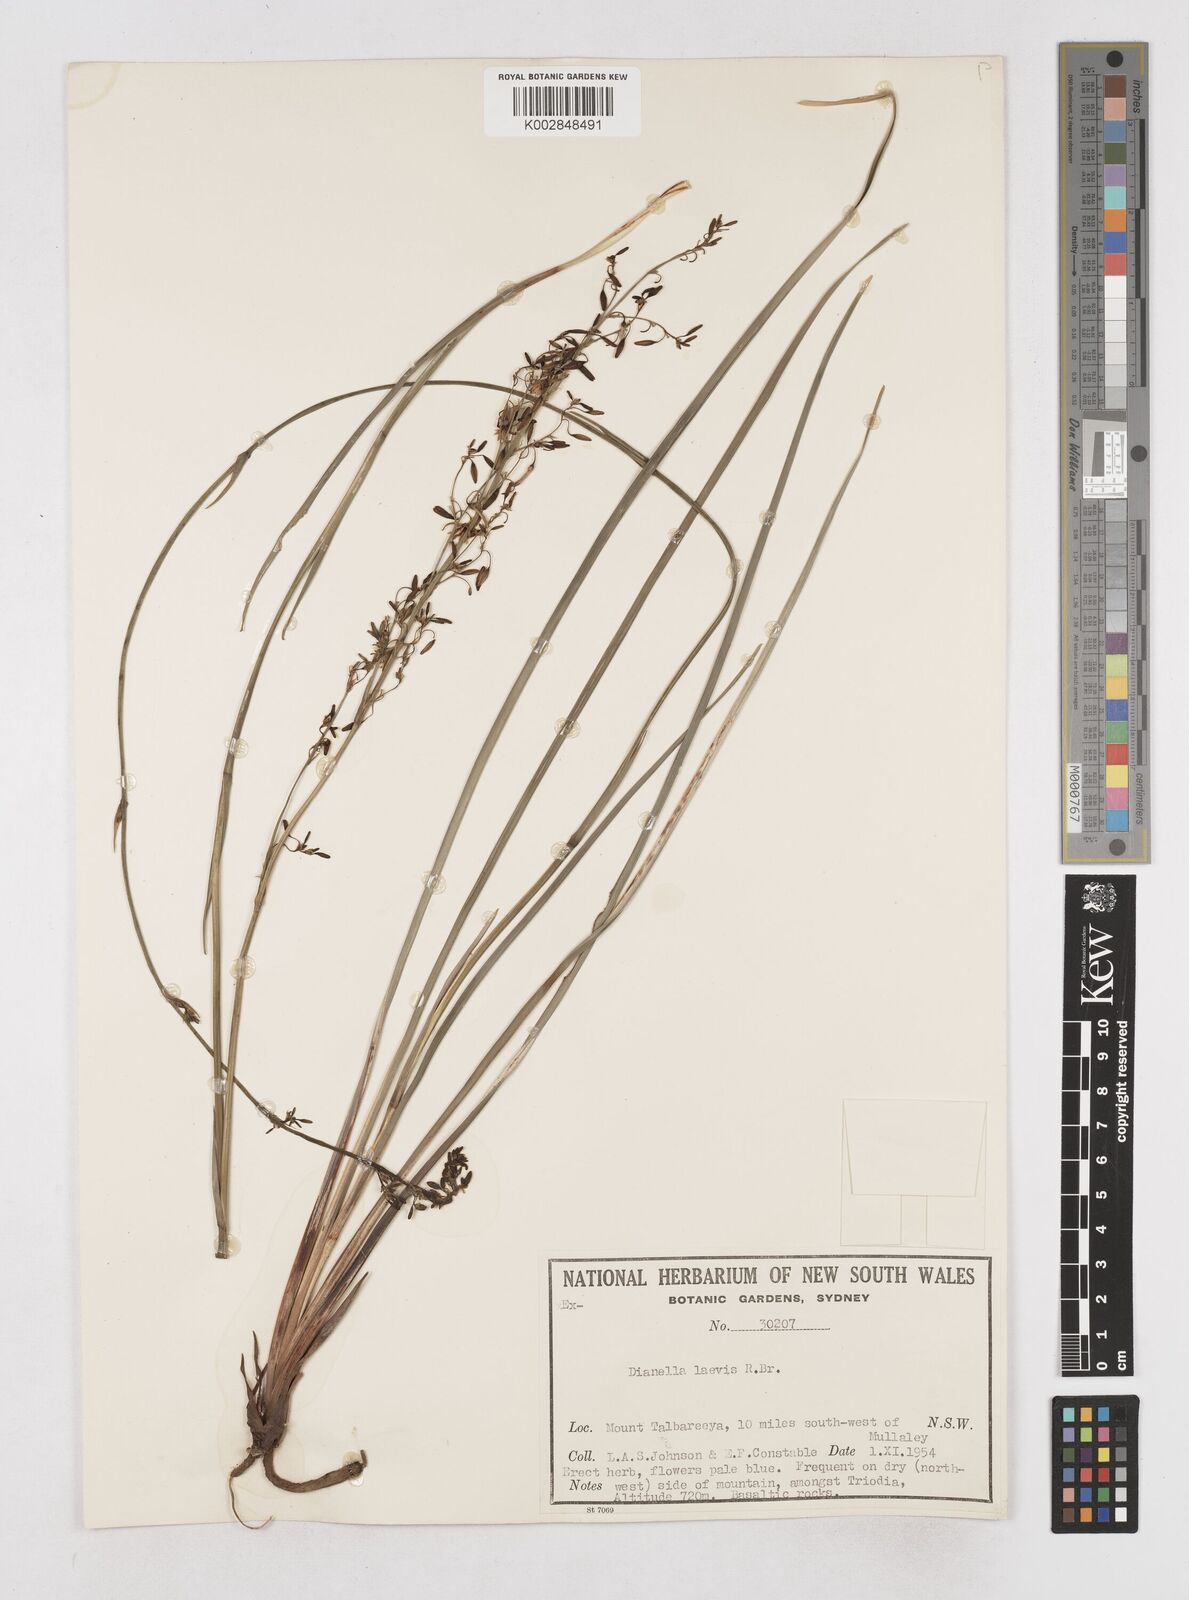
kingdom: Plantae
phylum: Tracheophyta
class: Liliopsida
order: Asparagales
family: Asphodelaceae
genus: Dianella
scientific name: Dianella longifolia
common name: Blue flax-lily
